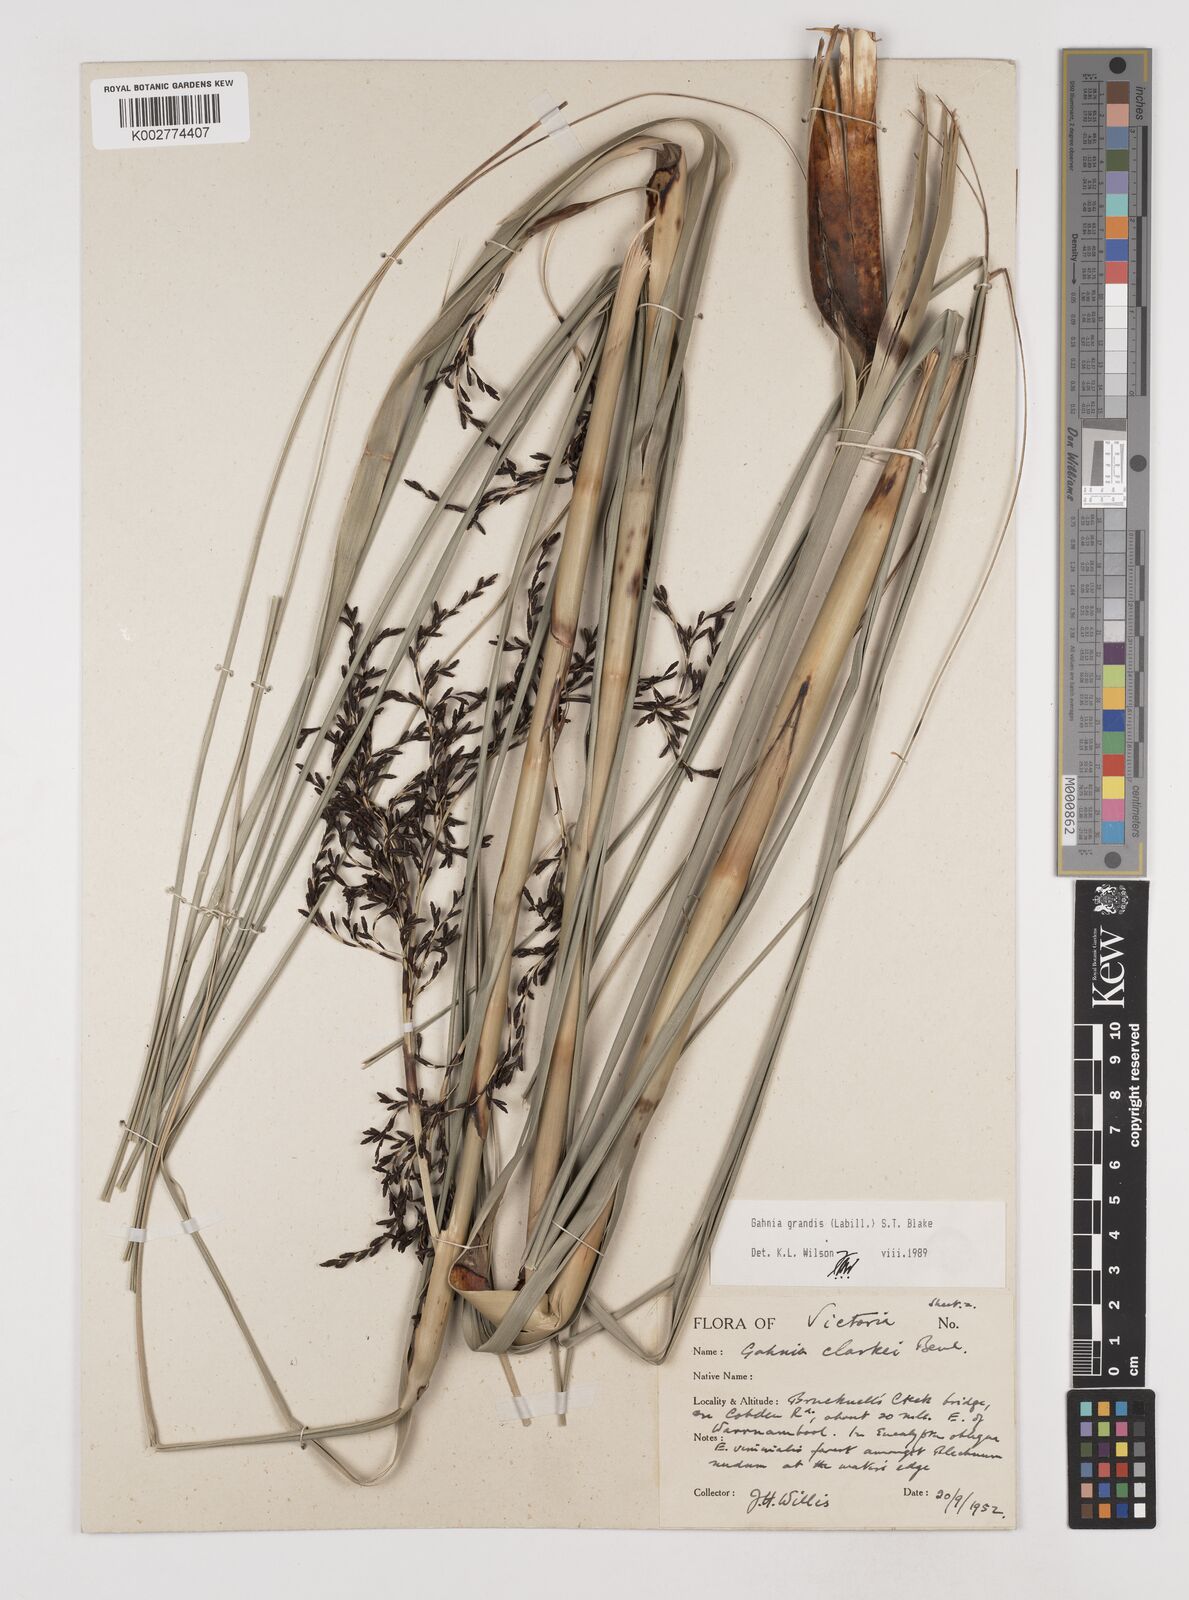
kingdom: Plantae
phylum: Tracheophyta
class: Liliopsida
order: Poales
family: Cyperaceae
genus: Gahnia
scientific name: Gahnia grandis
